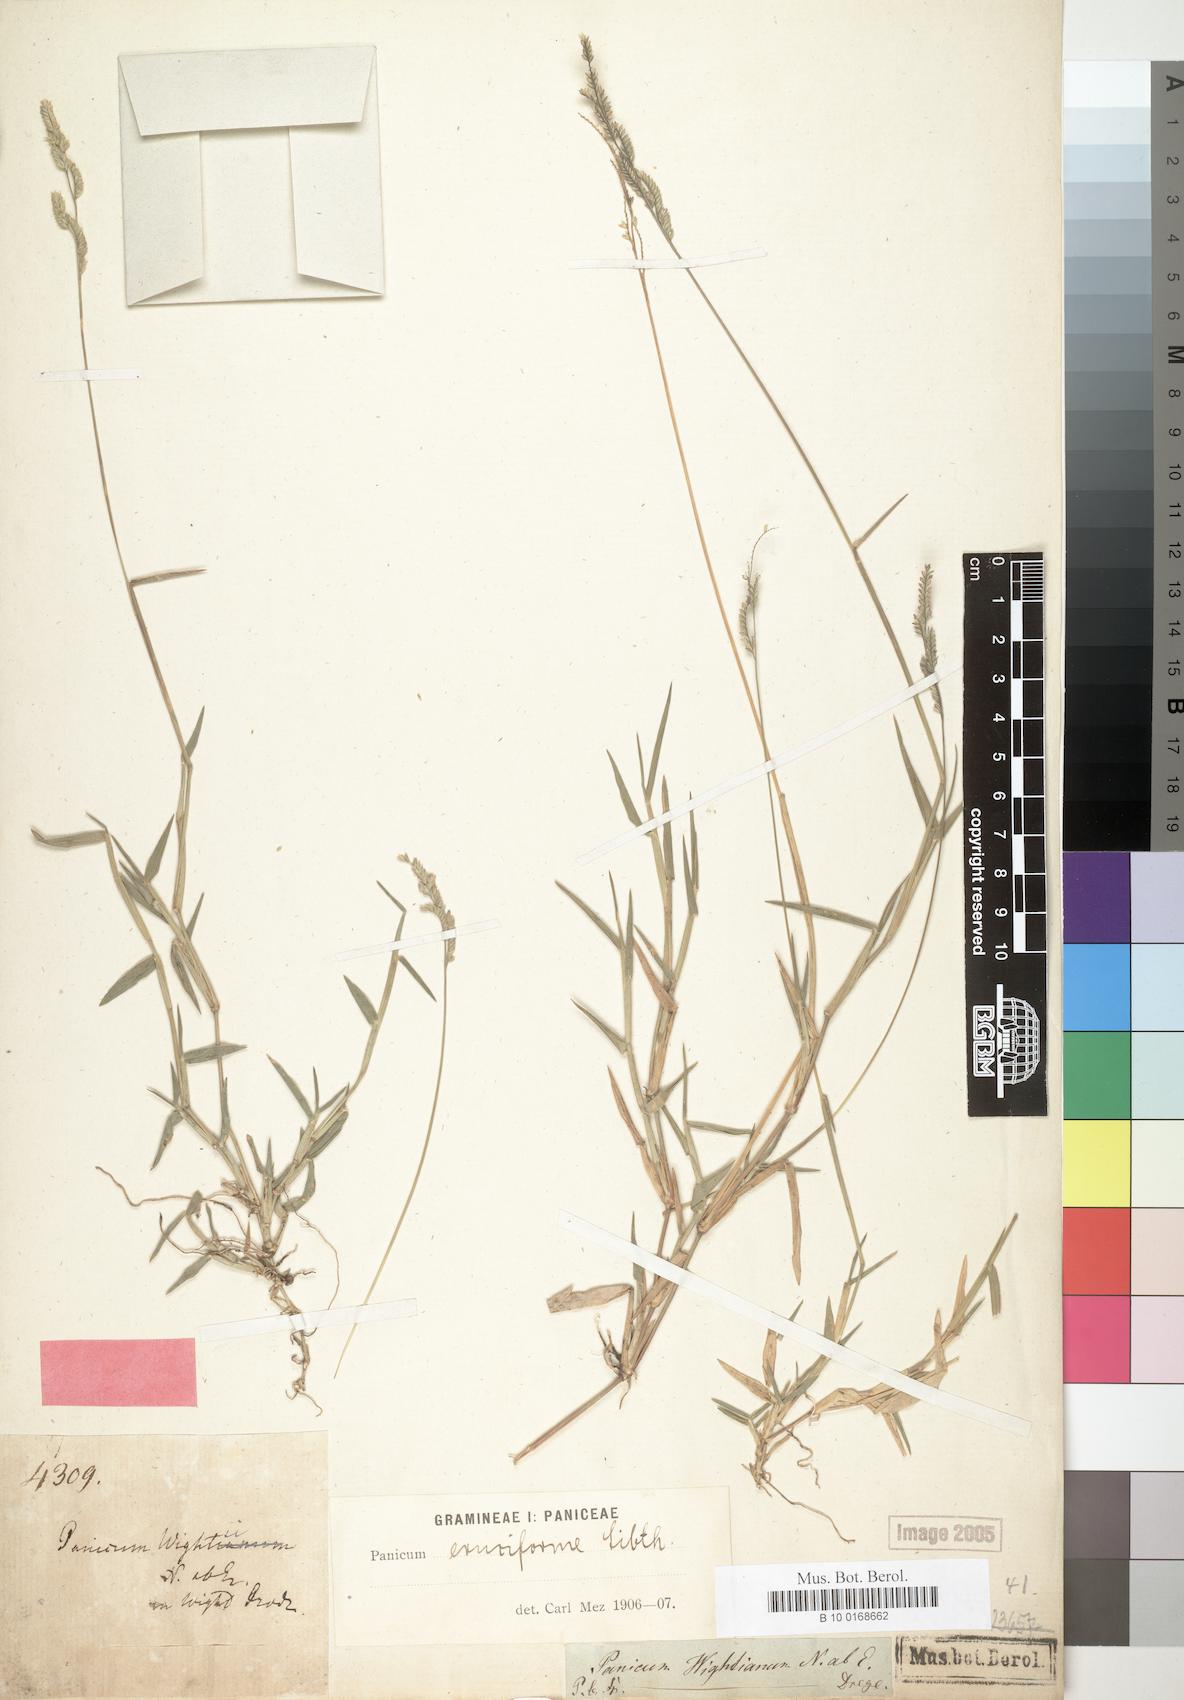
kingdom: Plantae
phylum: Tracheophyta
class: Liliopsida
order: Poales
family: Poaceae
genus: Moorochloa
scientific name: Moorochloa eruciformis
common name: Sweet signalgrass
